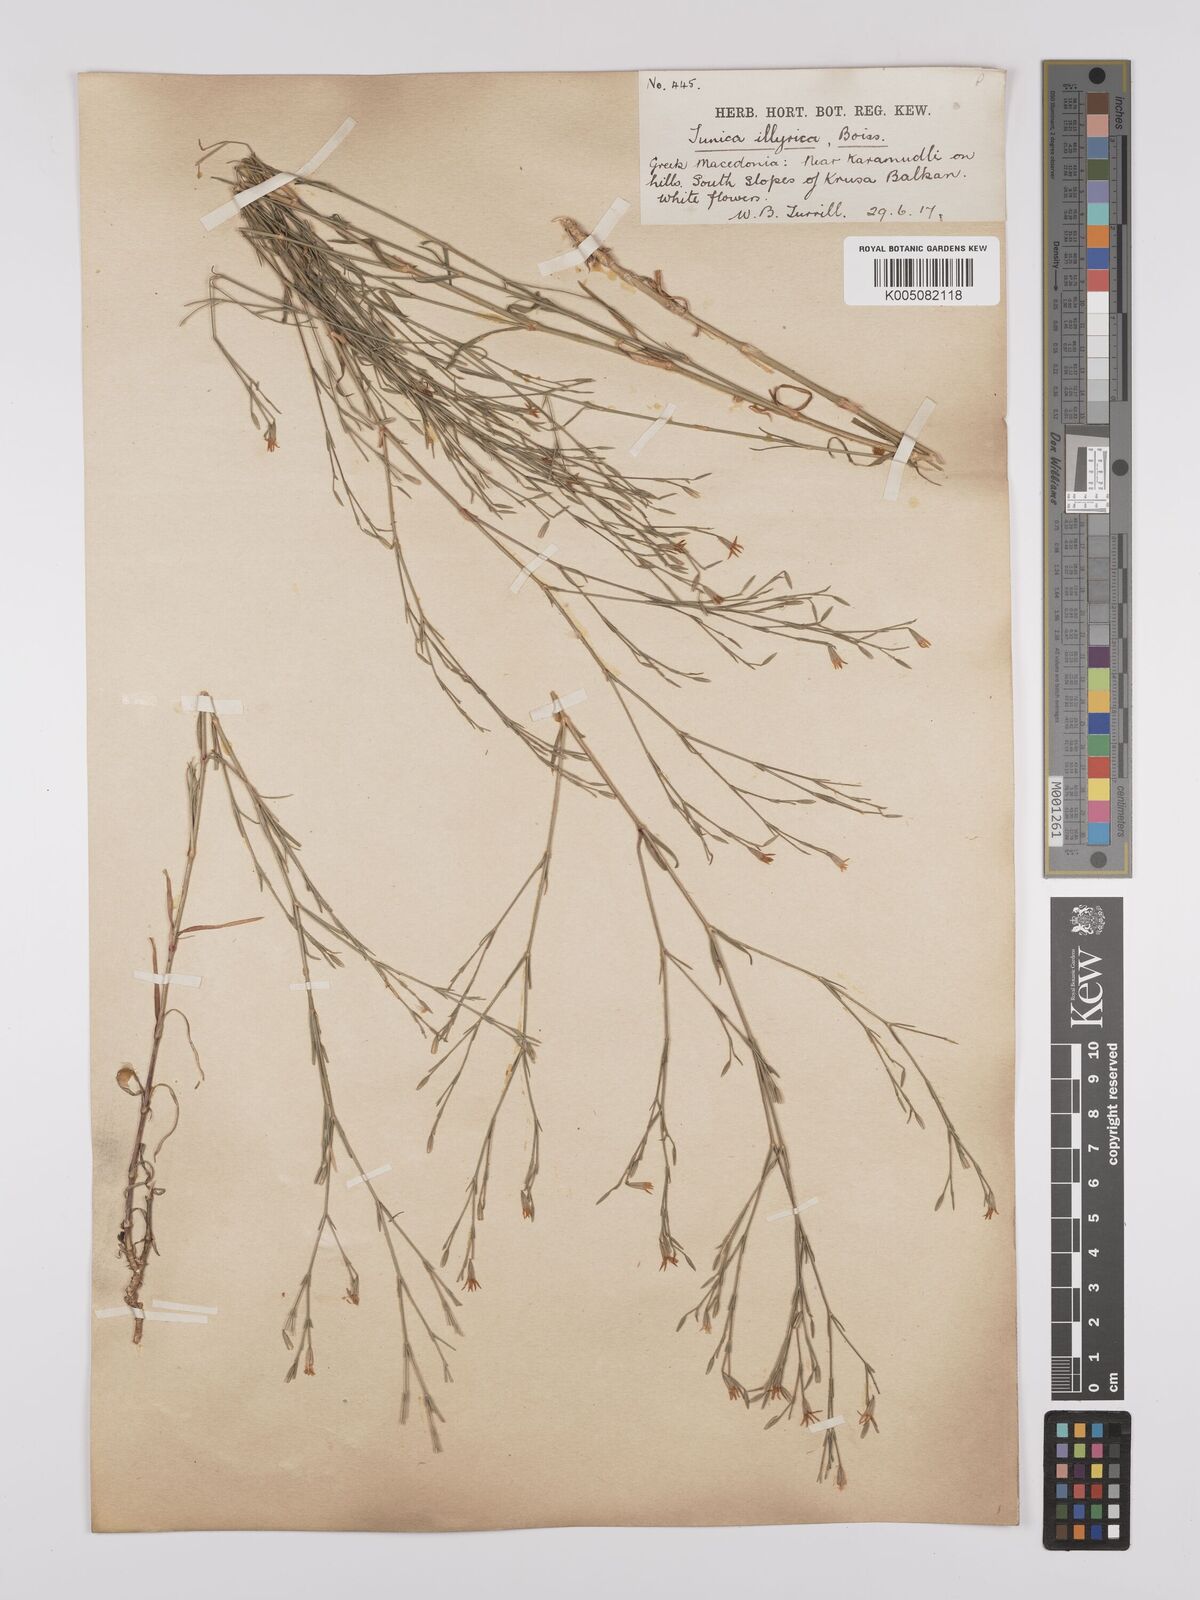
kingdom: Plantae
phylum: Tracheophyta
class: Magnoliopsida
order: Caryophyllales
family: Caryophyllaceae
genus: Dianthus
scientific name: Dianthus illyricus
